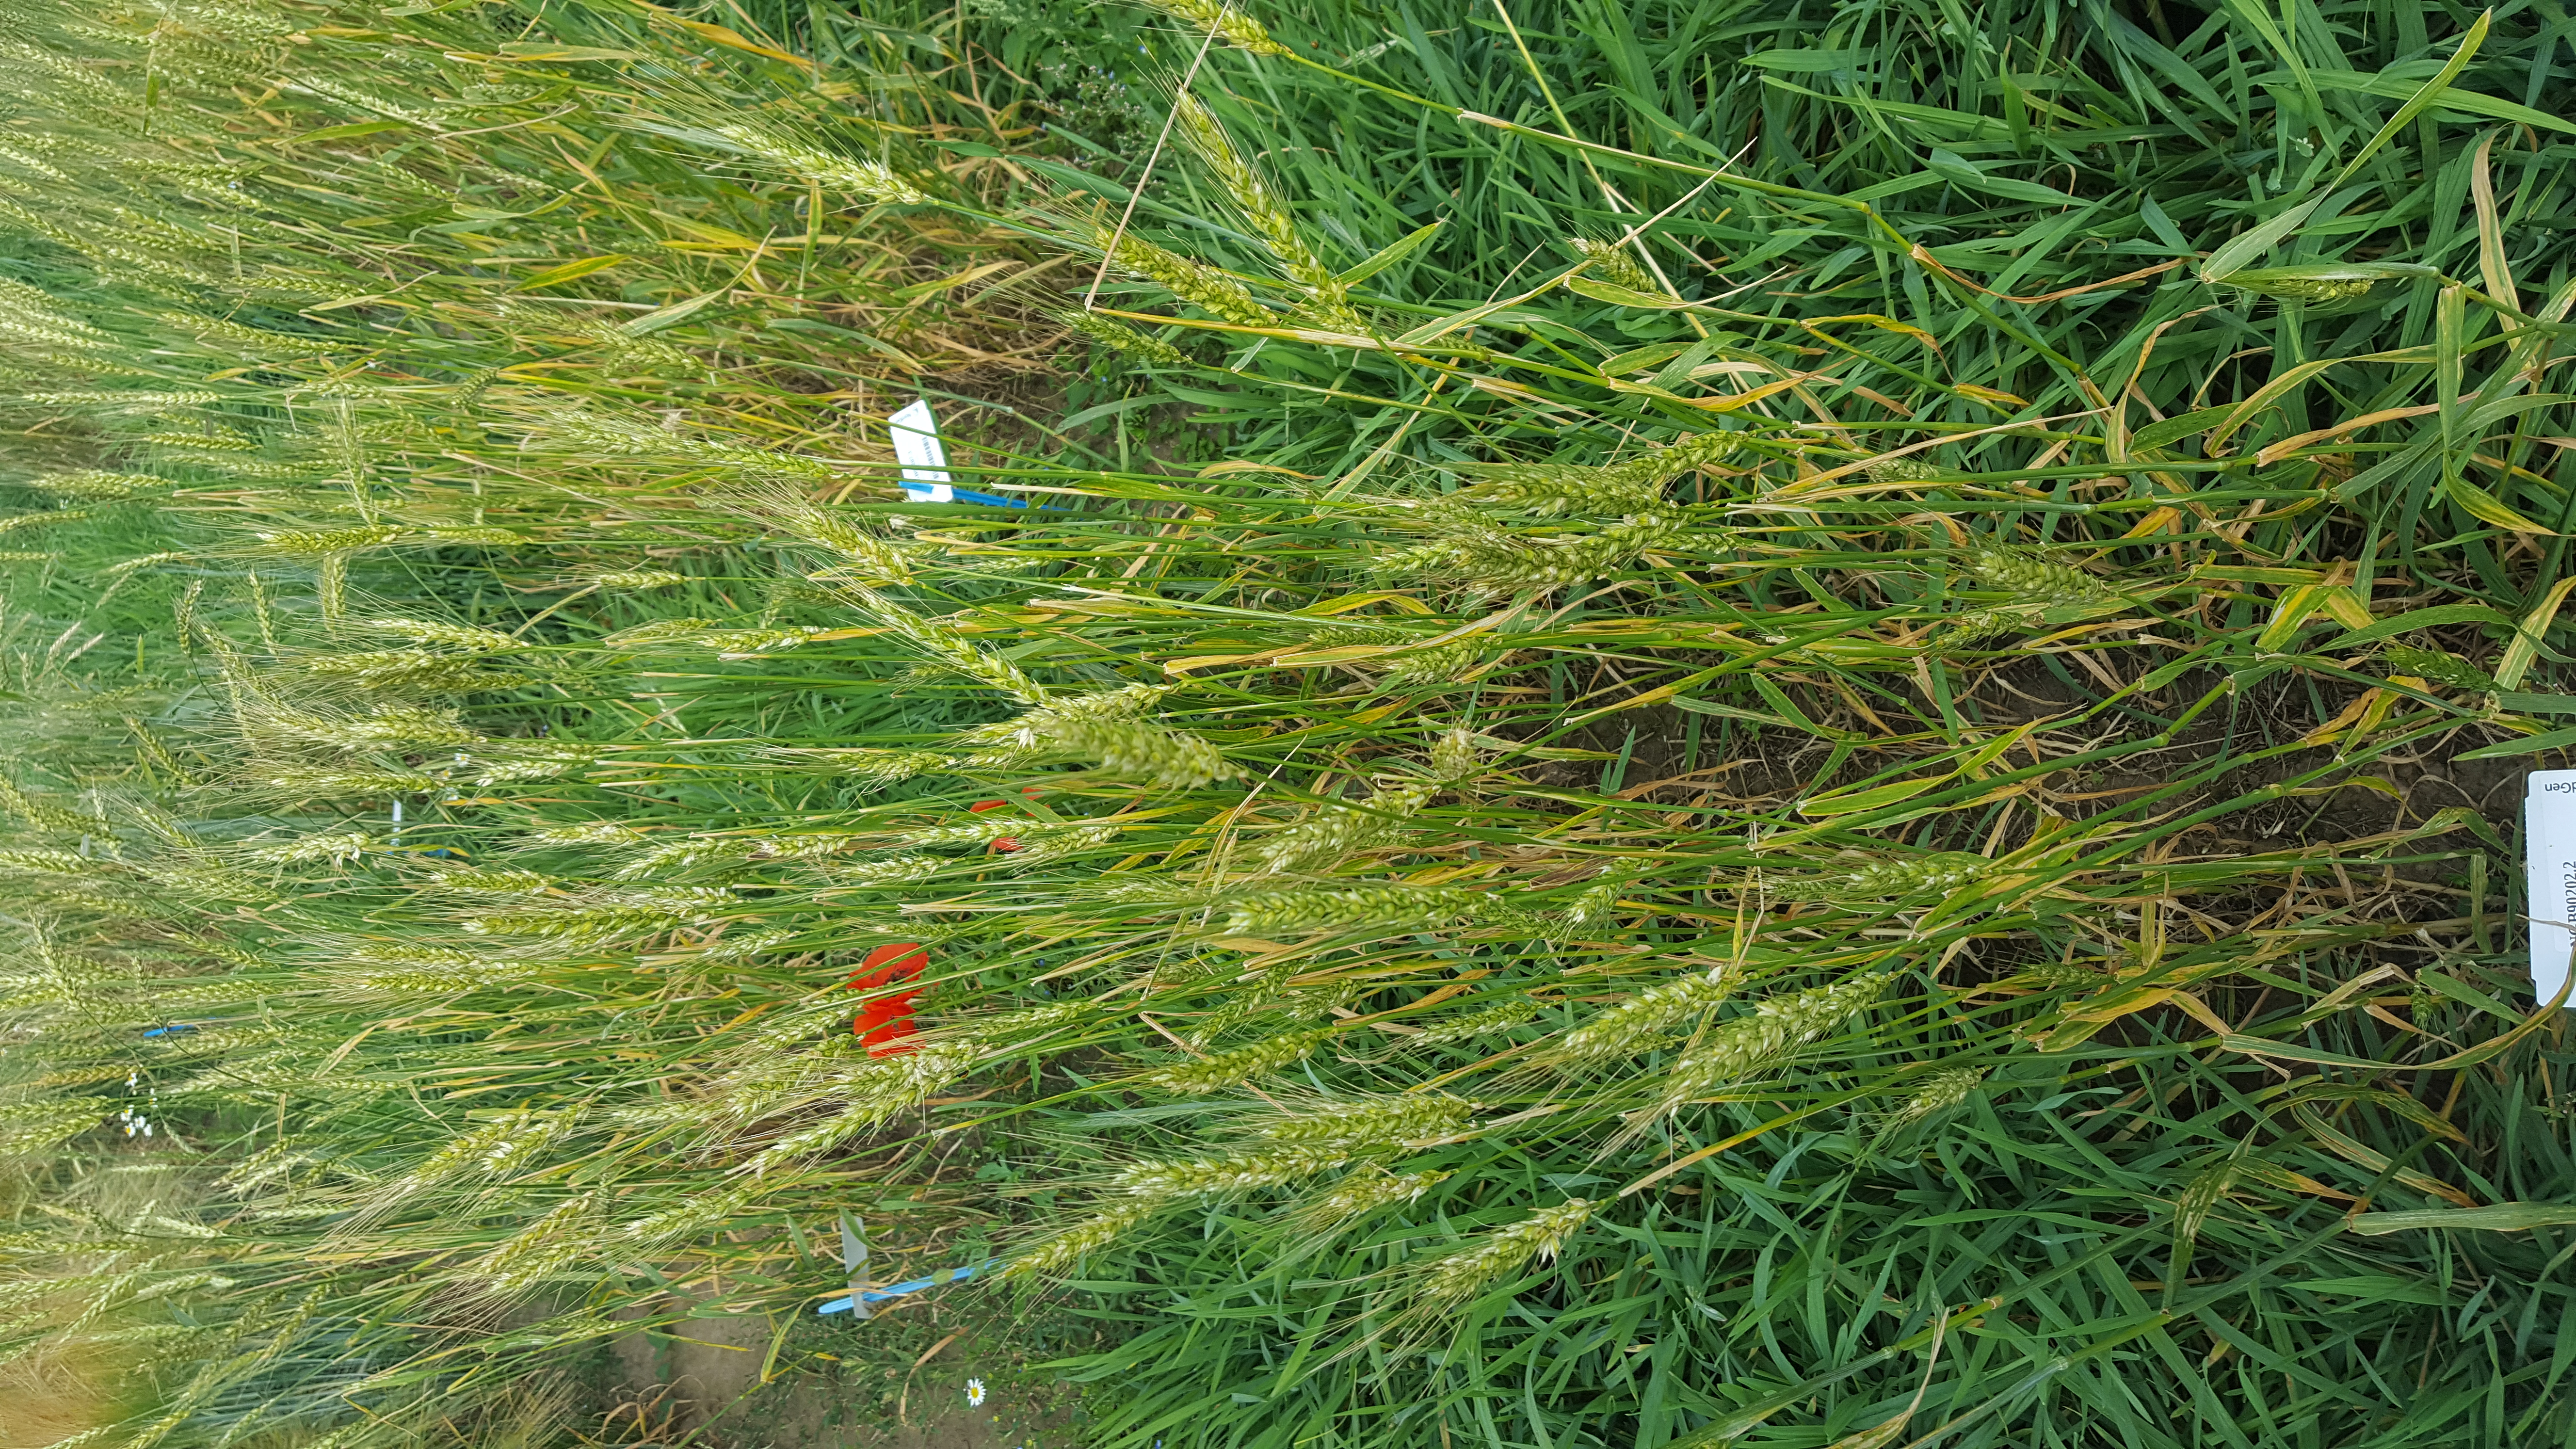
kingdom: Plantae
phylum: Tracheophyta
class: Liliopsida
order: Poales
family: Poaceae
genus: Triticum
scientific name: Triticum aestivum
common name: Common wheat
